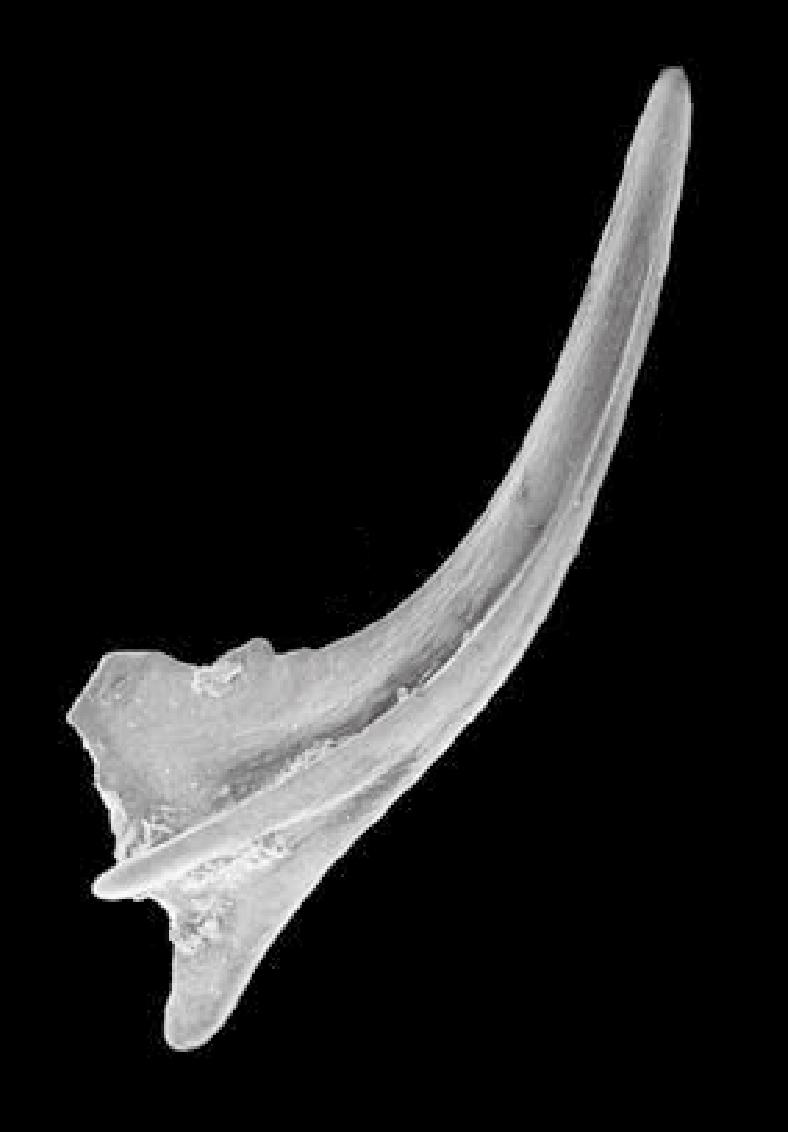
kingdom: Animalia
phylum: Chordata
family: Balognathidae
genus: Prioniodus
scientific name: Prioniodus
